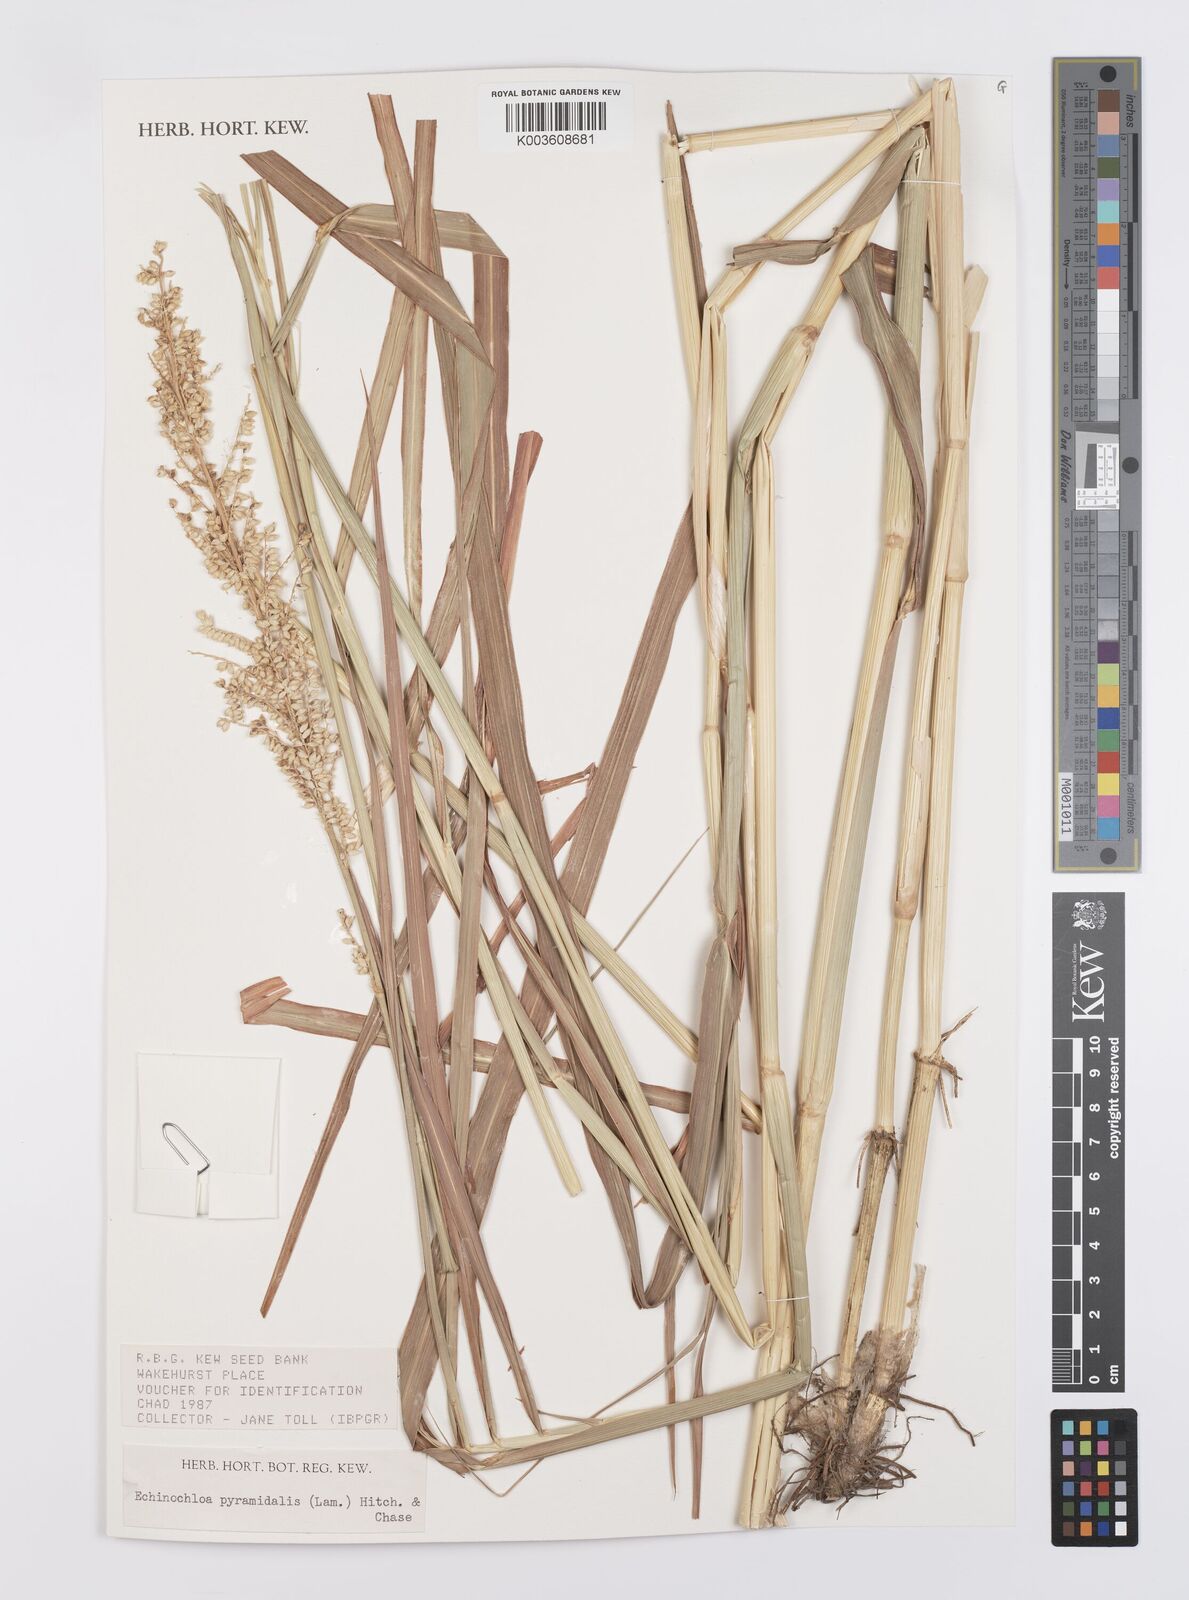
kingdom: Plantae
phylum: Tracheophyta
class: Liliopsida
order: Poales
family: Poaceae
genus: Echinochloa
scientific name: Echinochloa pyramidalis
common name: Antelope grass
